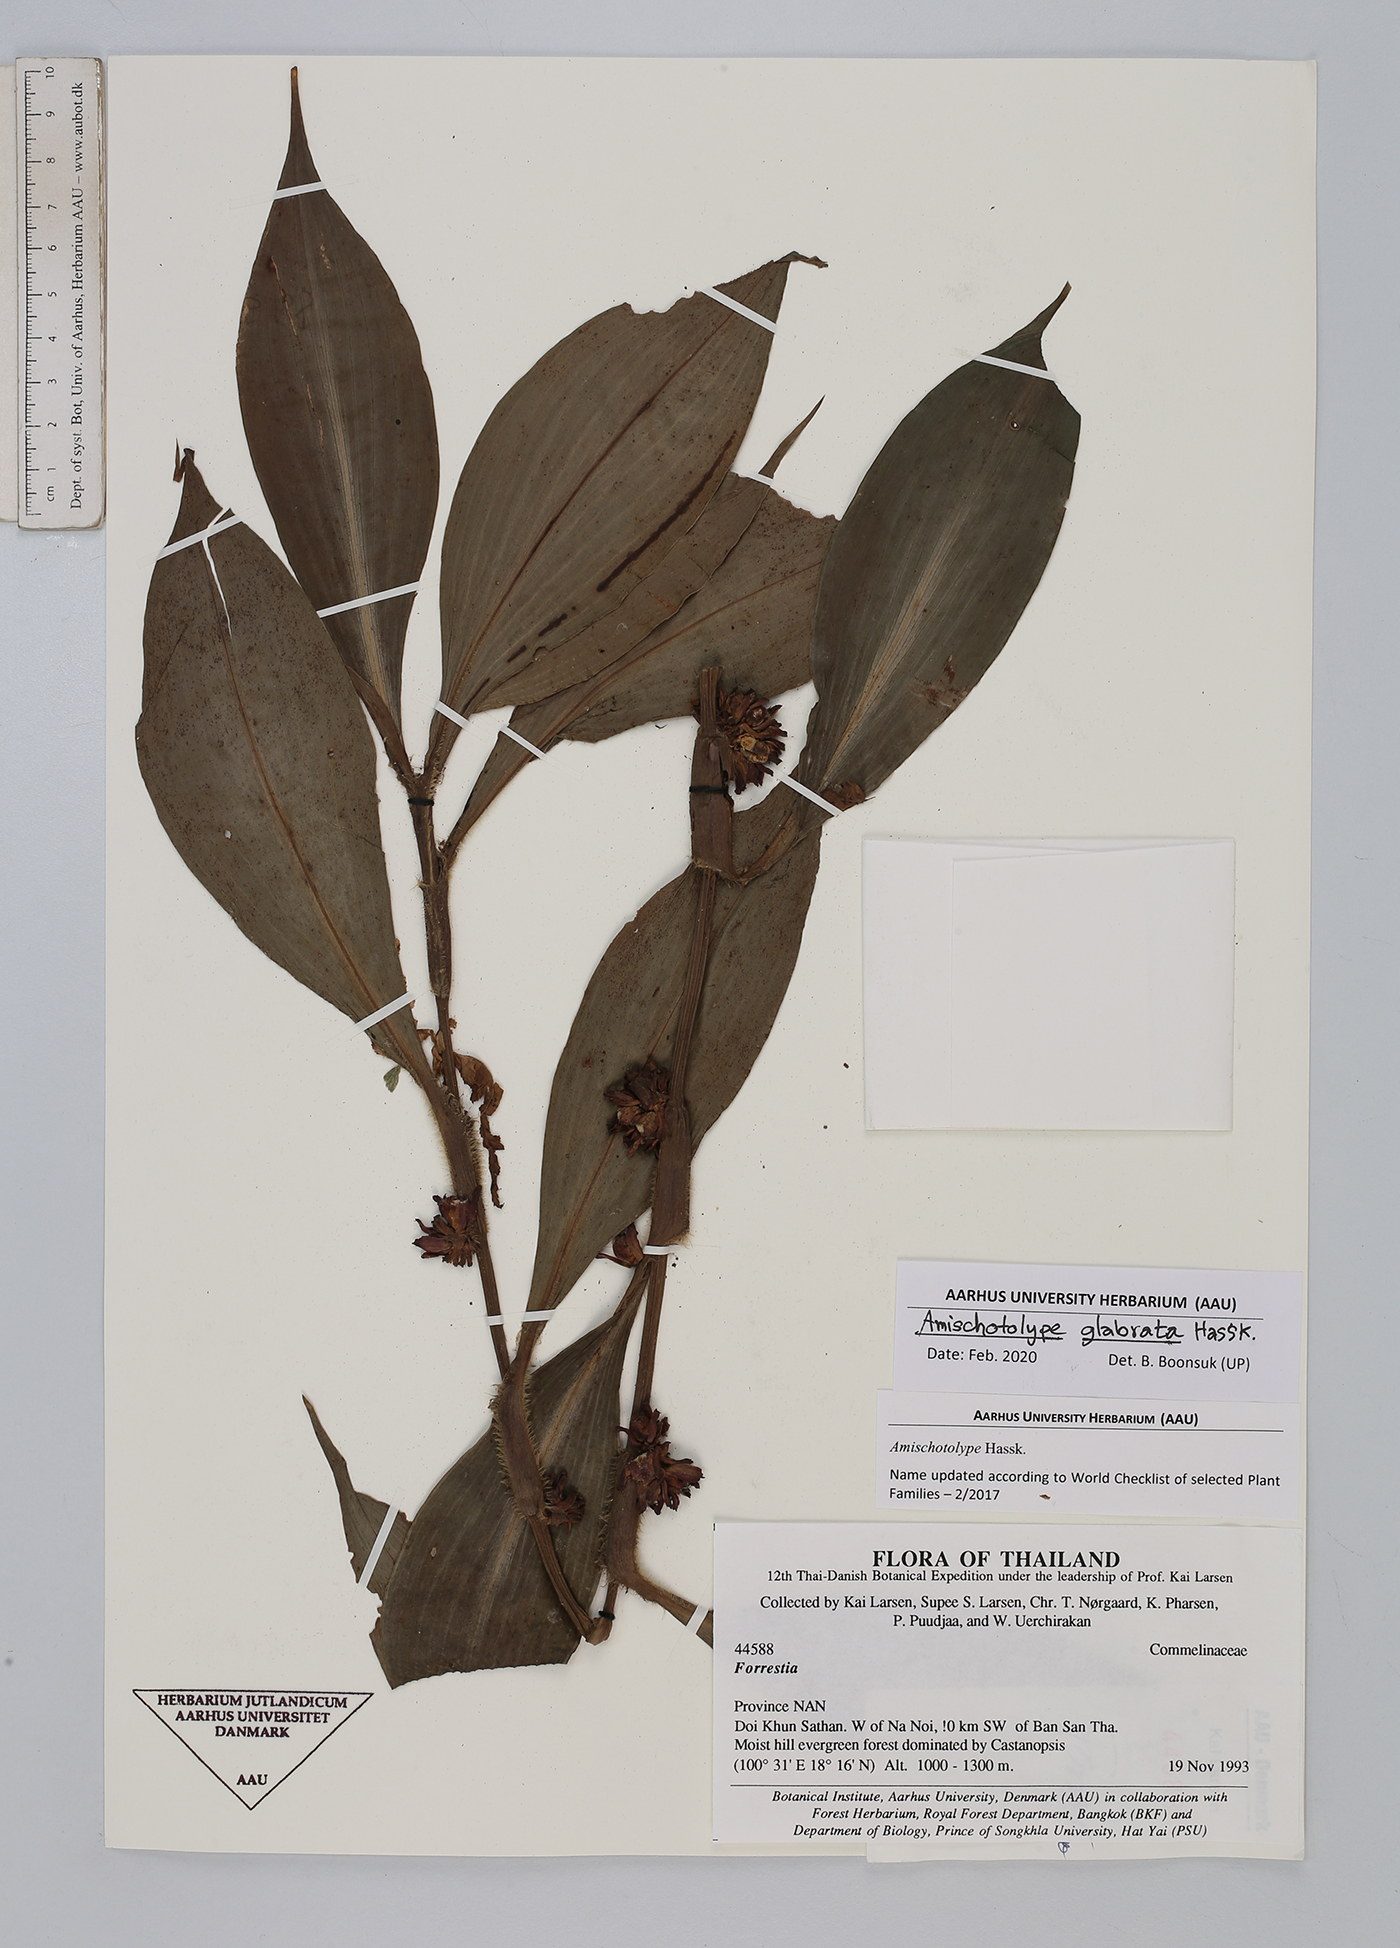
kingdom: Plantae
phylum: Tracheophyta
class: Liliopsida
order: Commelinales
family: Commelinaceae
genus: Amischotolype
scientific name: Amischotolype glabrata
